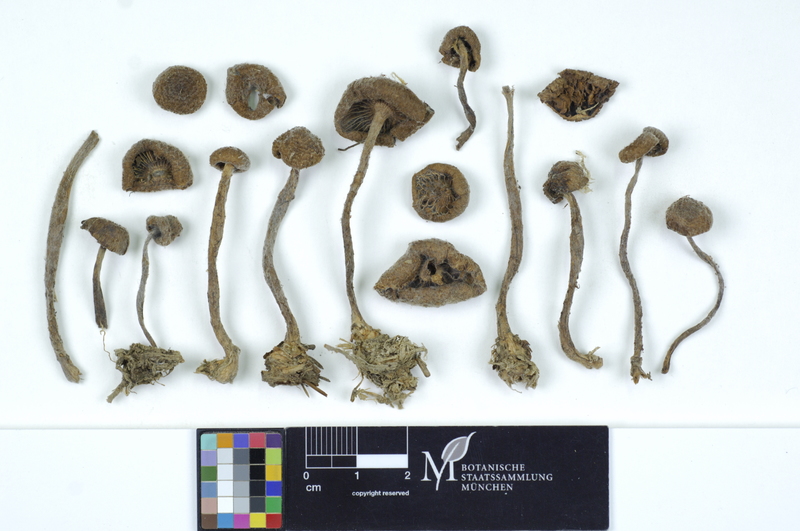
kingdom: Fungi
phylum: Basidiomycota
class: Agaricomycetes
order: Agaricales
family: Inocybaceae
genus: Inosperma
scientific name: Inosperma calamistratum
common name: Greenfoot fibrecap
